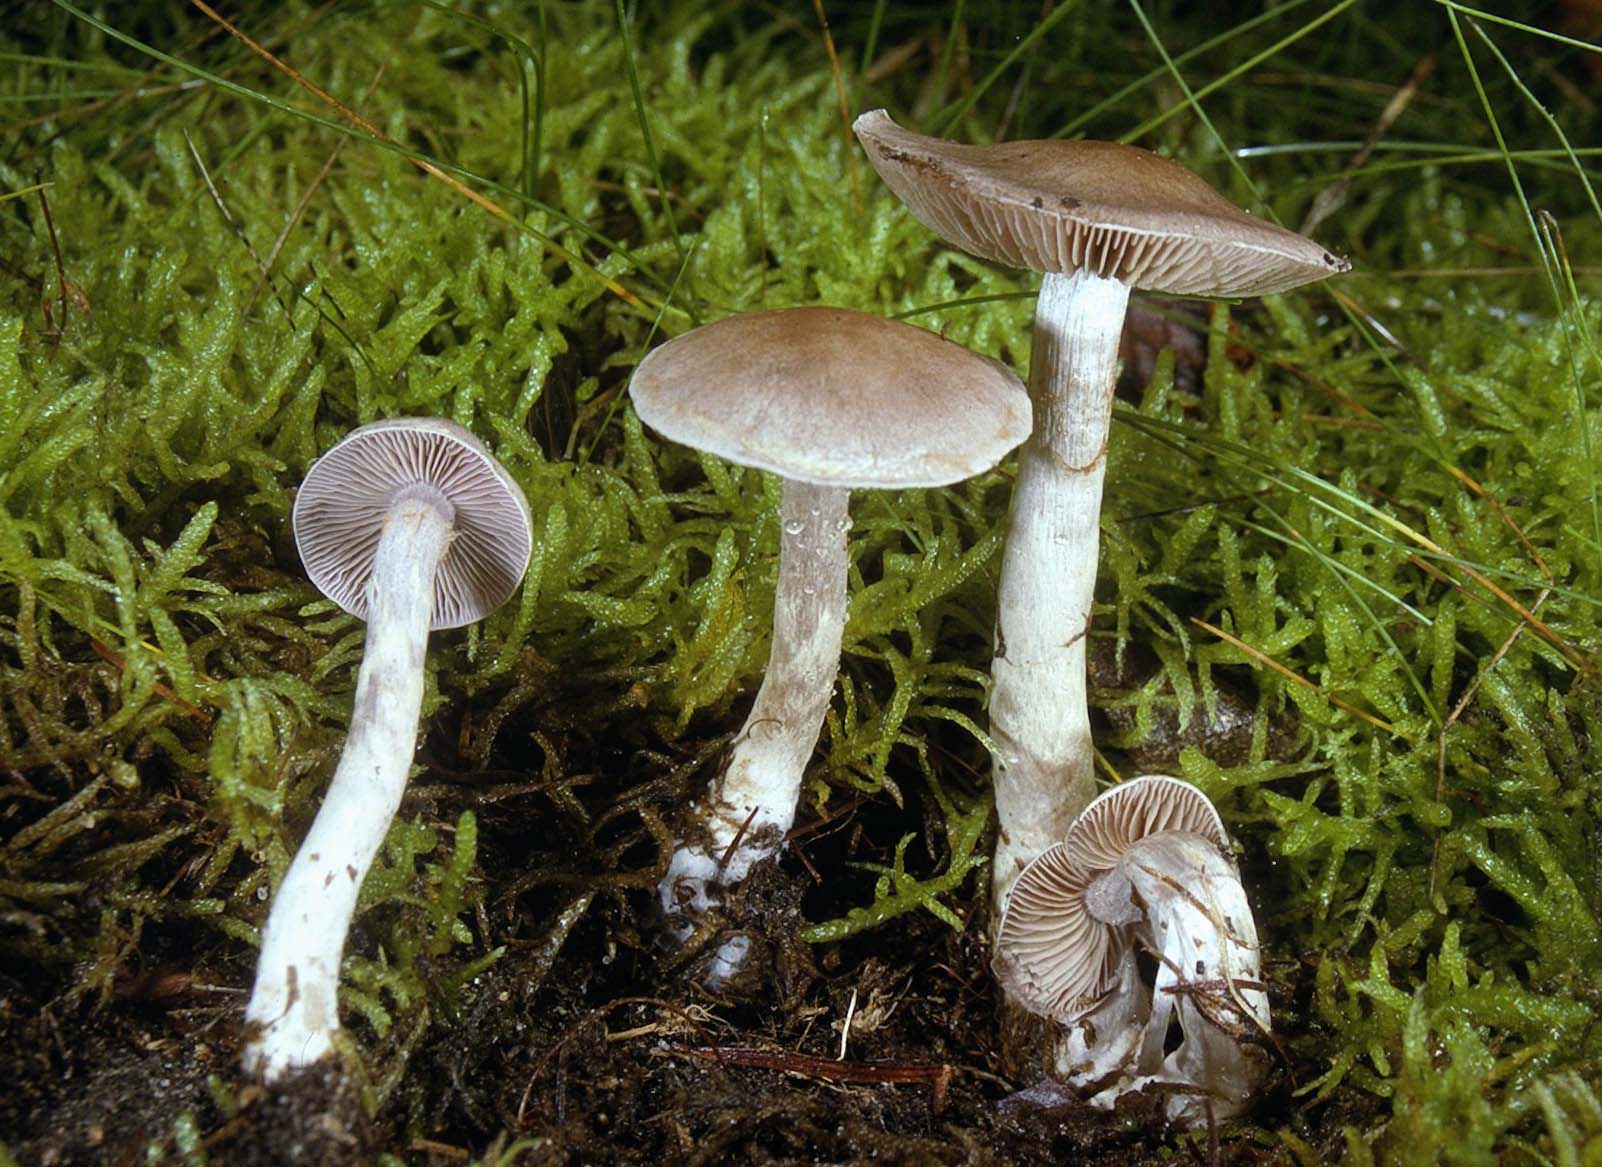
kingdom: Fungi
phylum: Basidiomycota
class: Agaricomycetes
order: Agaricales
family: Cortinariaceae
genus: Cortinarius
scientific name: Cortinarius anomalus
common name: Variable webcap
